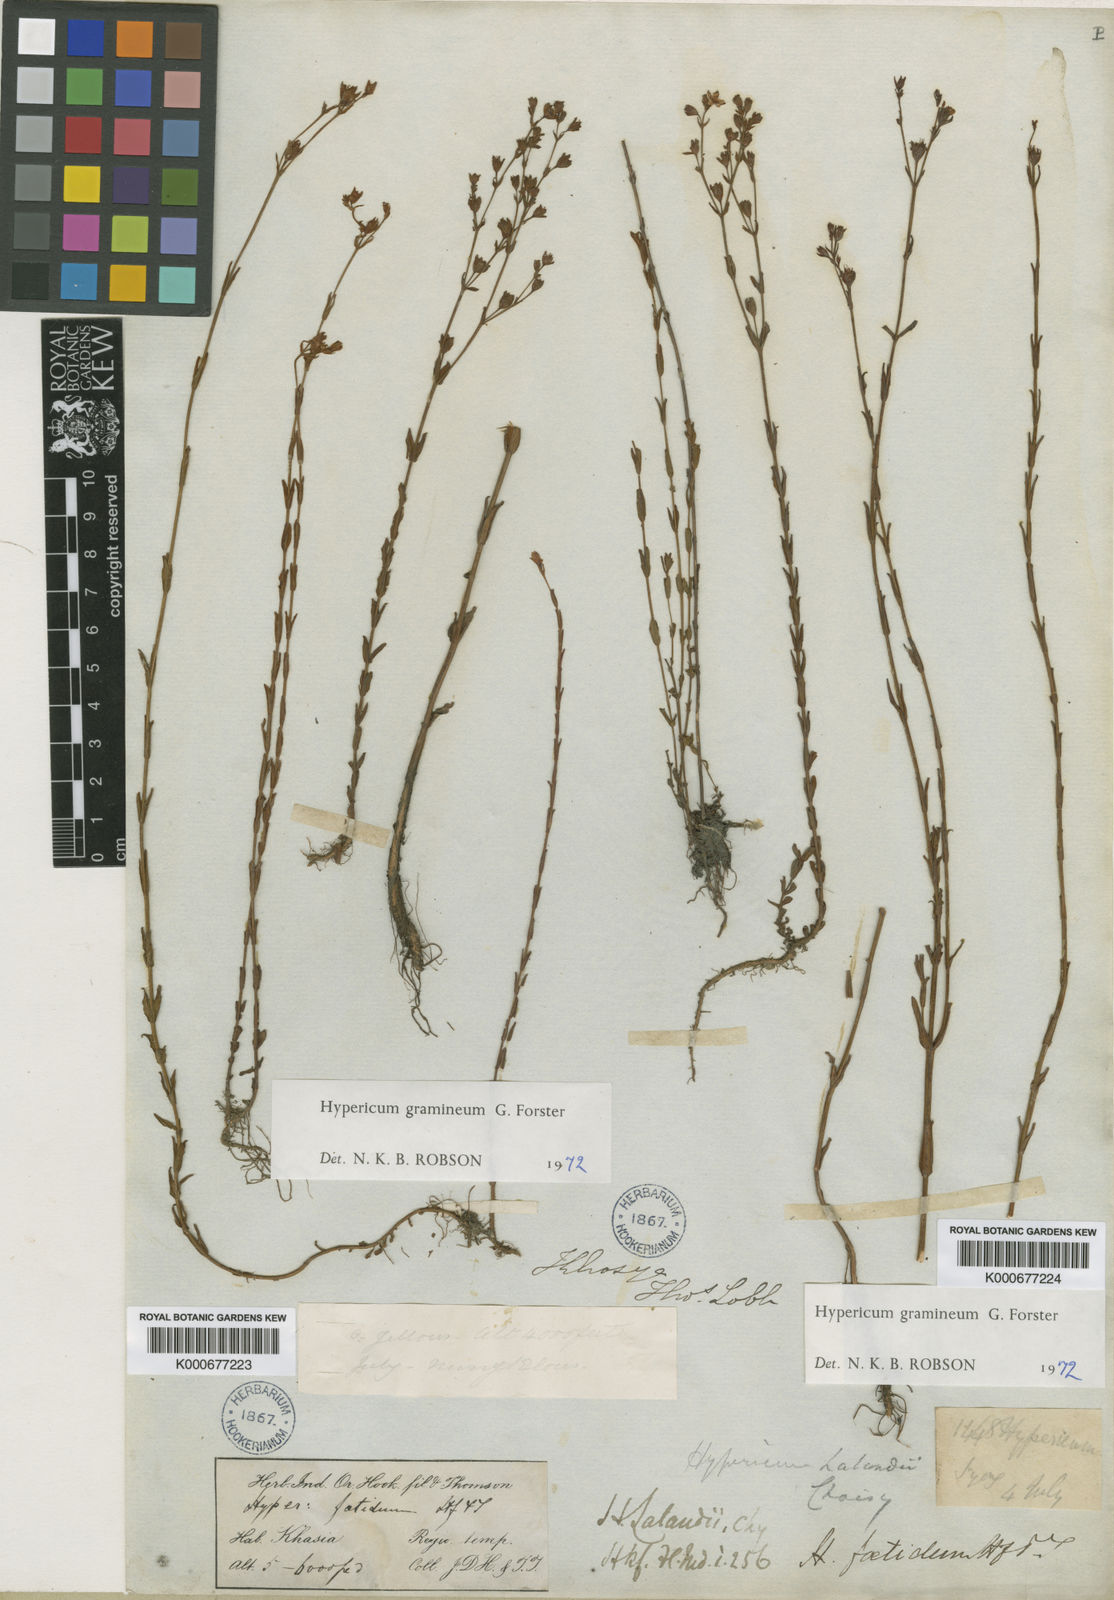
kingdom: Plantae
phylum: Tracheophyta
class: Magnoliopsida
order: Malpighiales
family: Hypericaceae
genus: Hypericum
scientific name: Hypericum gramineum
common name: Grassy st. johnswort
